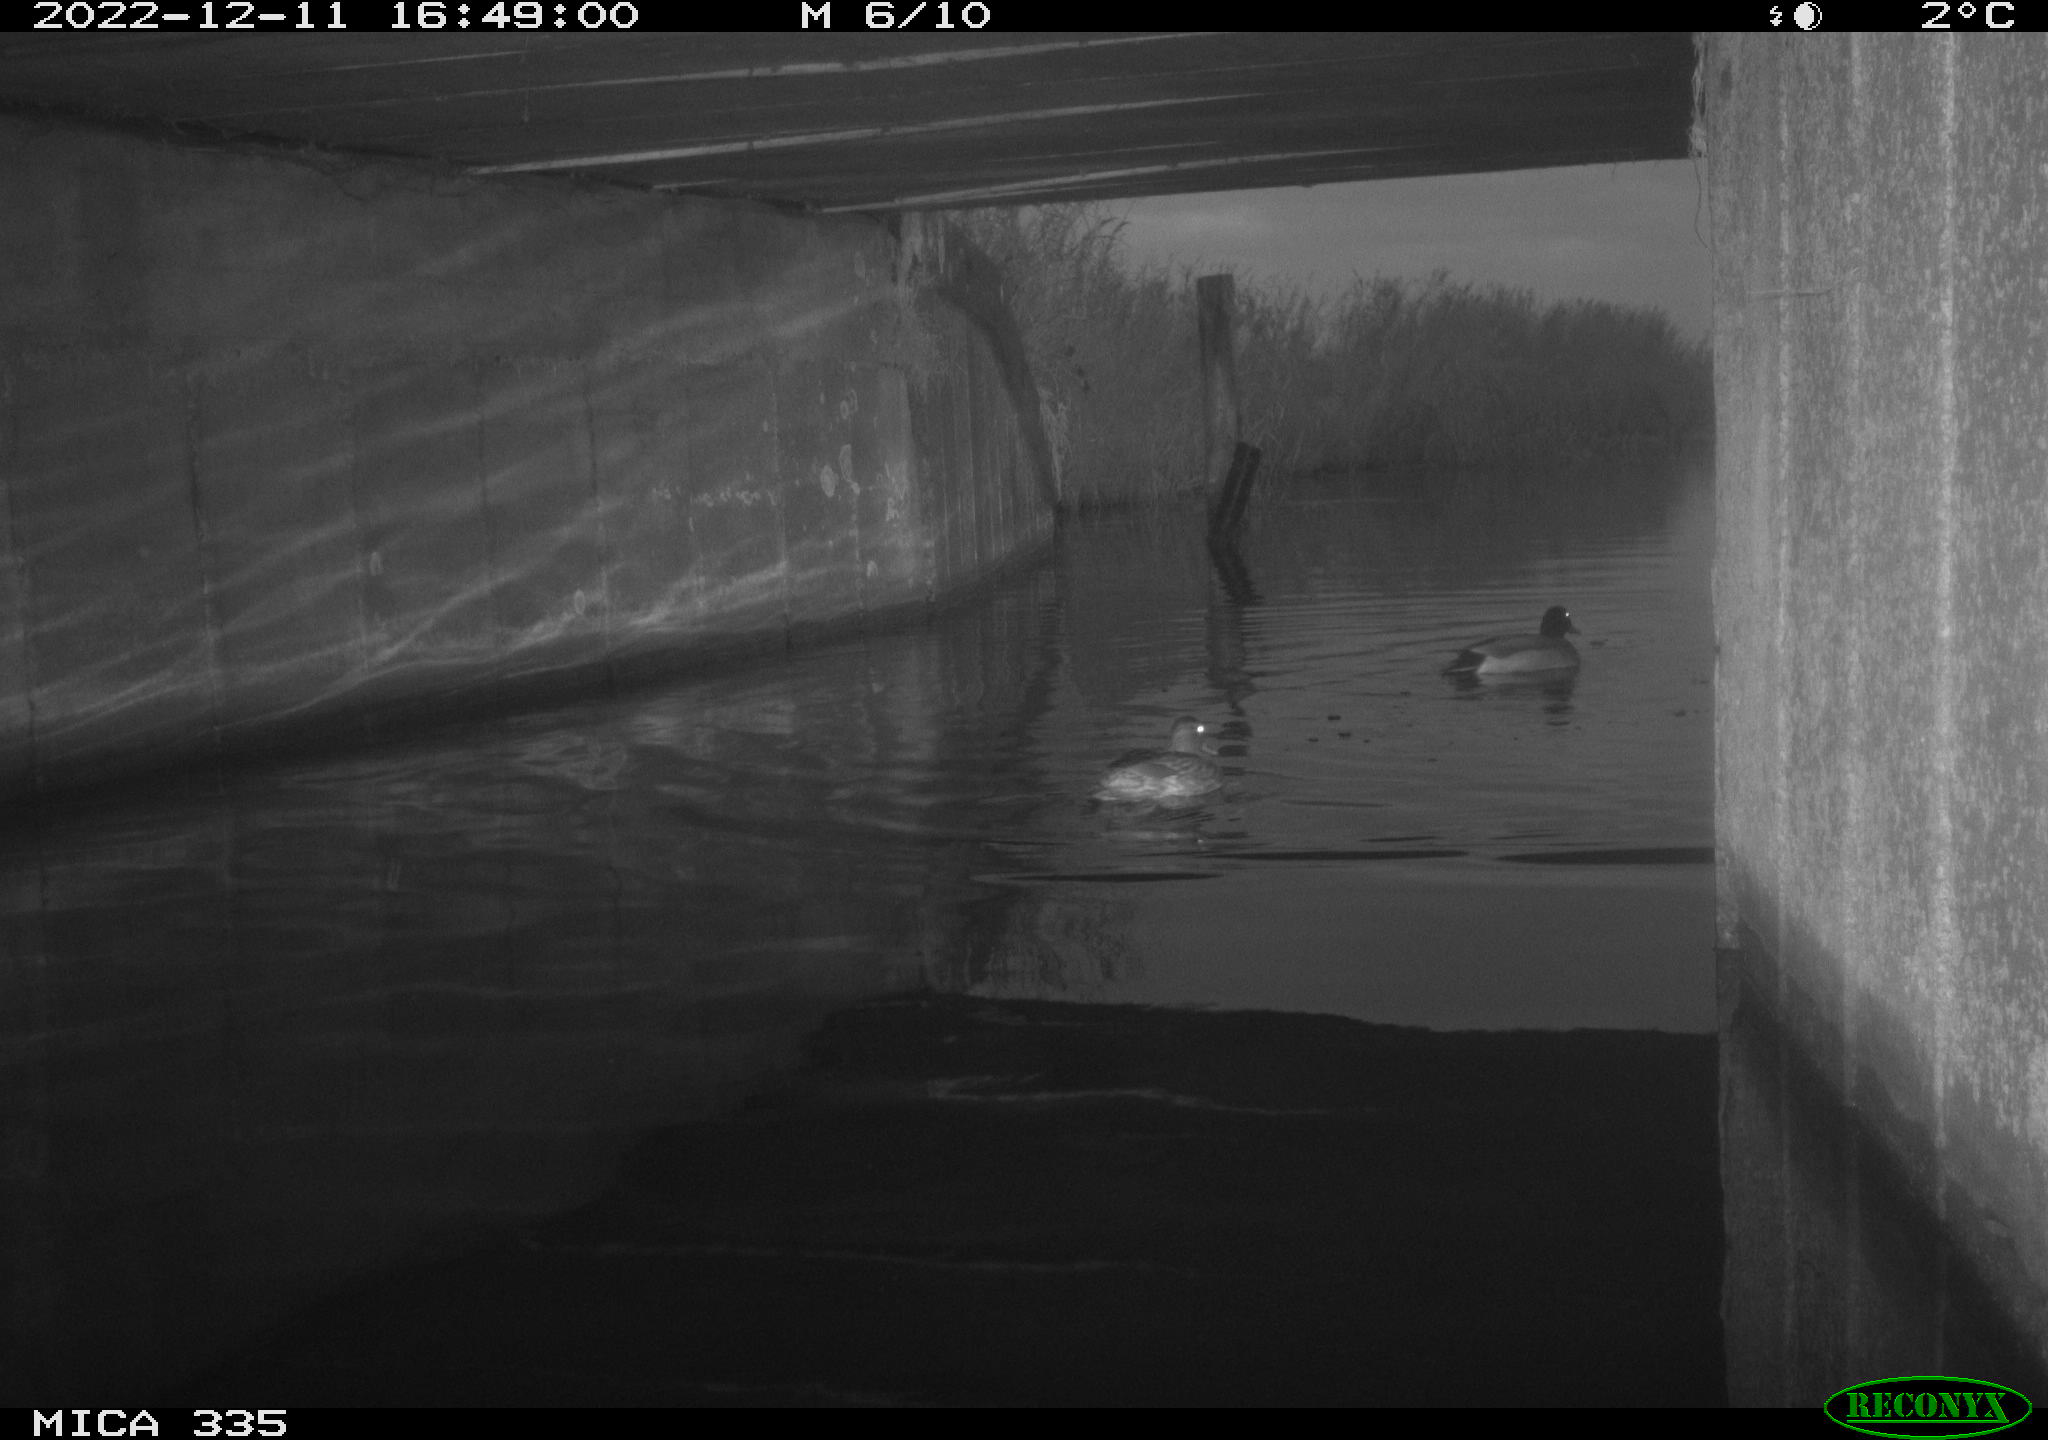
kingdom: Animalia
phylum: Chordata
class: Aves
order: Anseriformes
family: Anatidae
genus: Anas
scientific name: Anas
